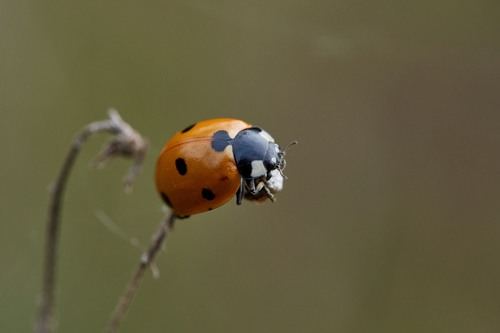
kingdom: Animalia
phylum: Arthropoda
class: Insecta
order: Coleoptera
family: Coccinellidae
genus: Coccinella
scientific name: Coccinella septempunctata
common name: Sevenspotted lady beetle
